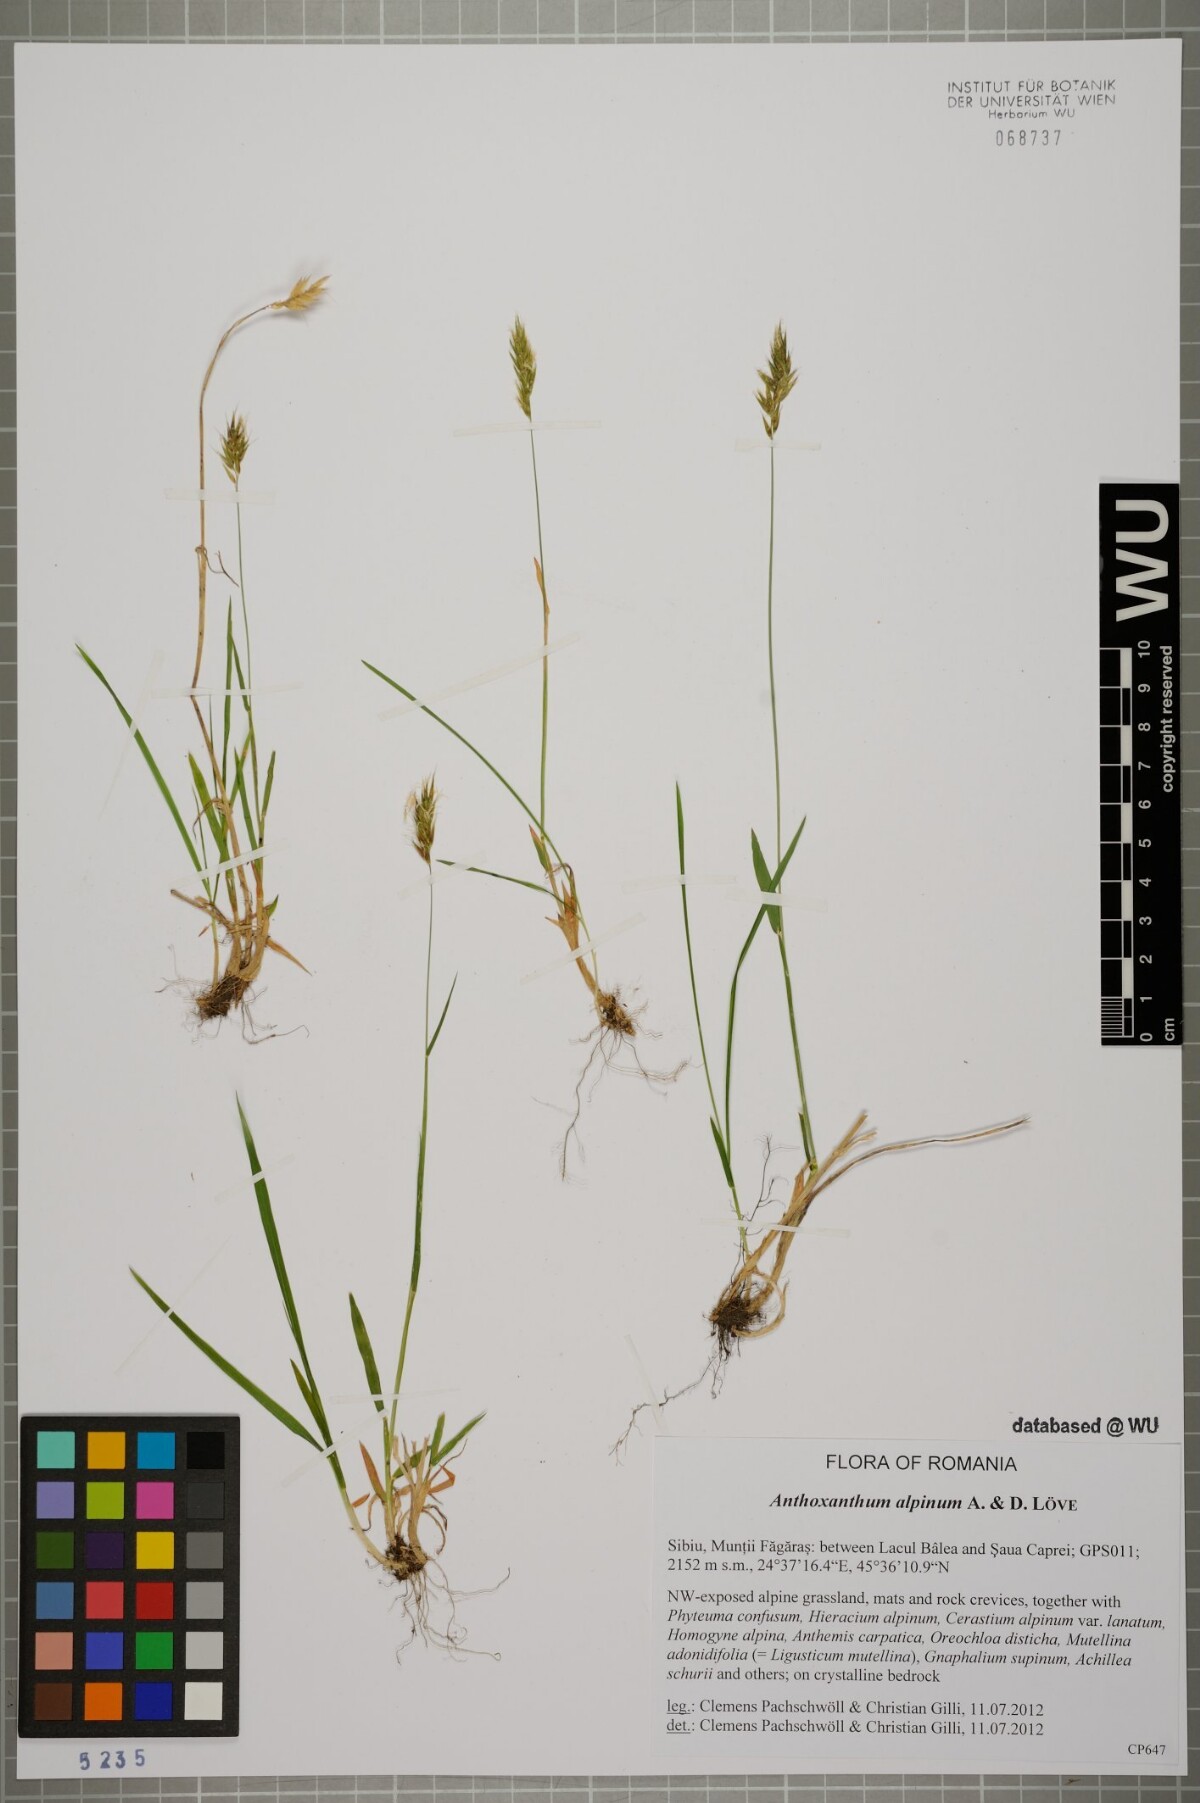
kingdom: Plantae
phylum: Tracheophyta
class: Liliopsida
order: Poales
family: Poaceae
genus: Anthoxanthum
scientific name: Anthoxanthum nipponicum
